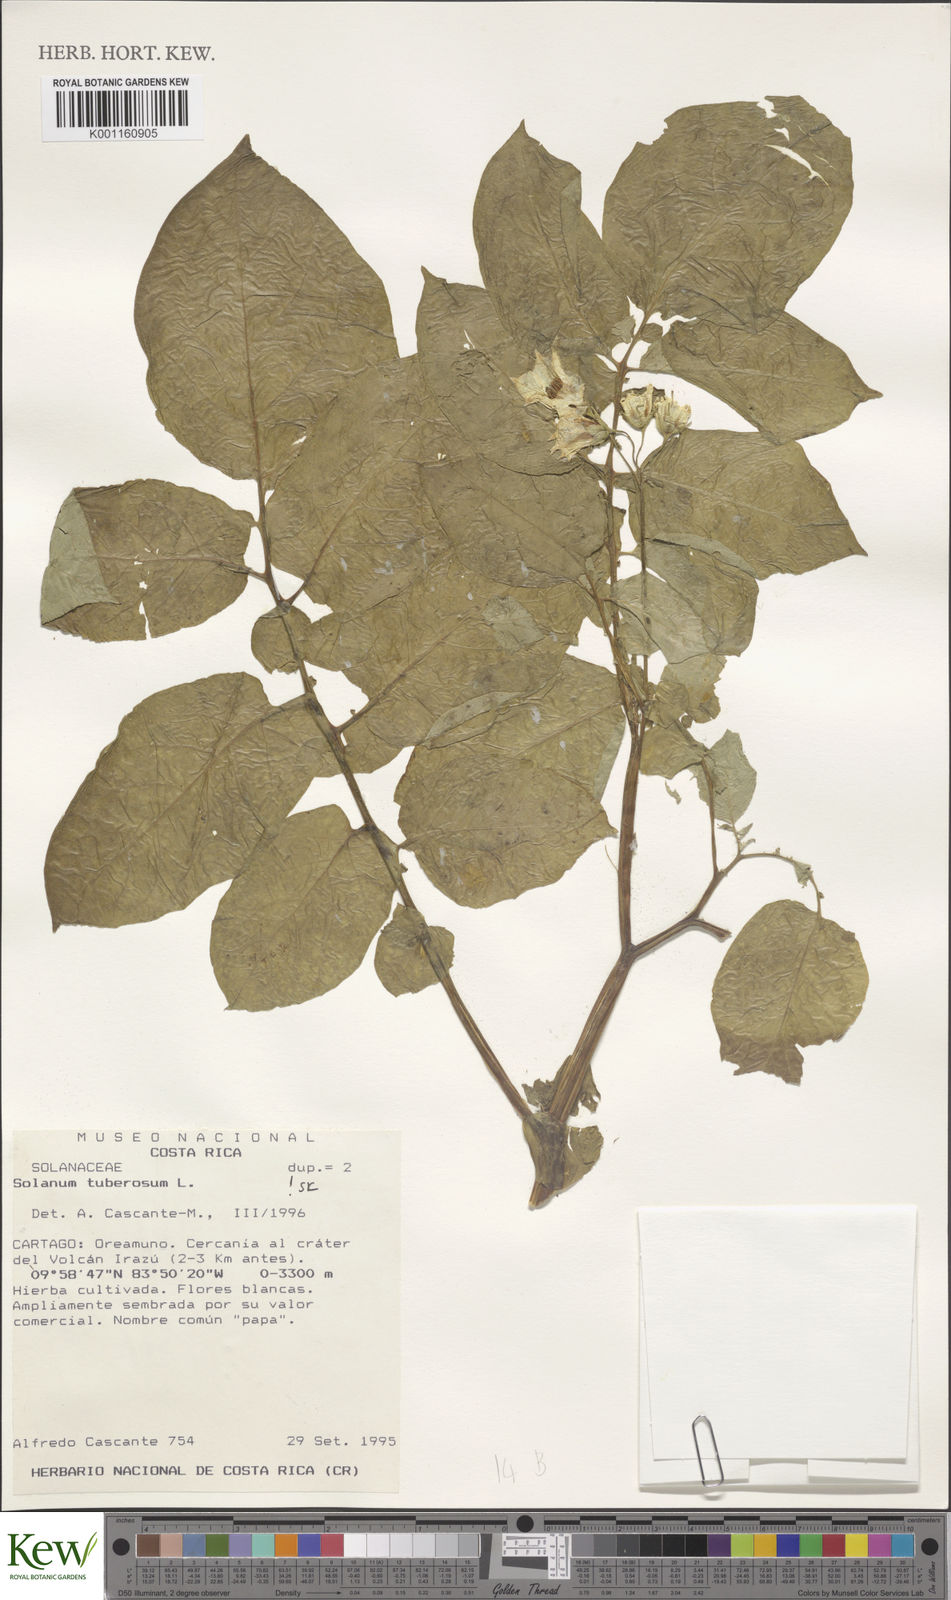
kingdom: Plantae
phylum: Tracheophyta
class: Magnoliopsida
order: Solanales
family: Solanaceae
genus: Solanum
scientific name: Solanum tuberosum
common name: Potato
